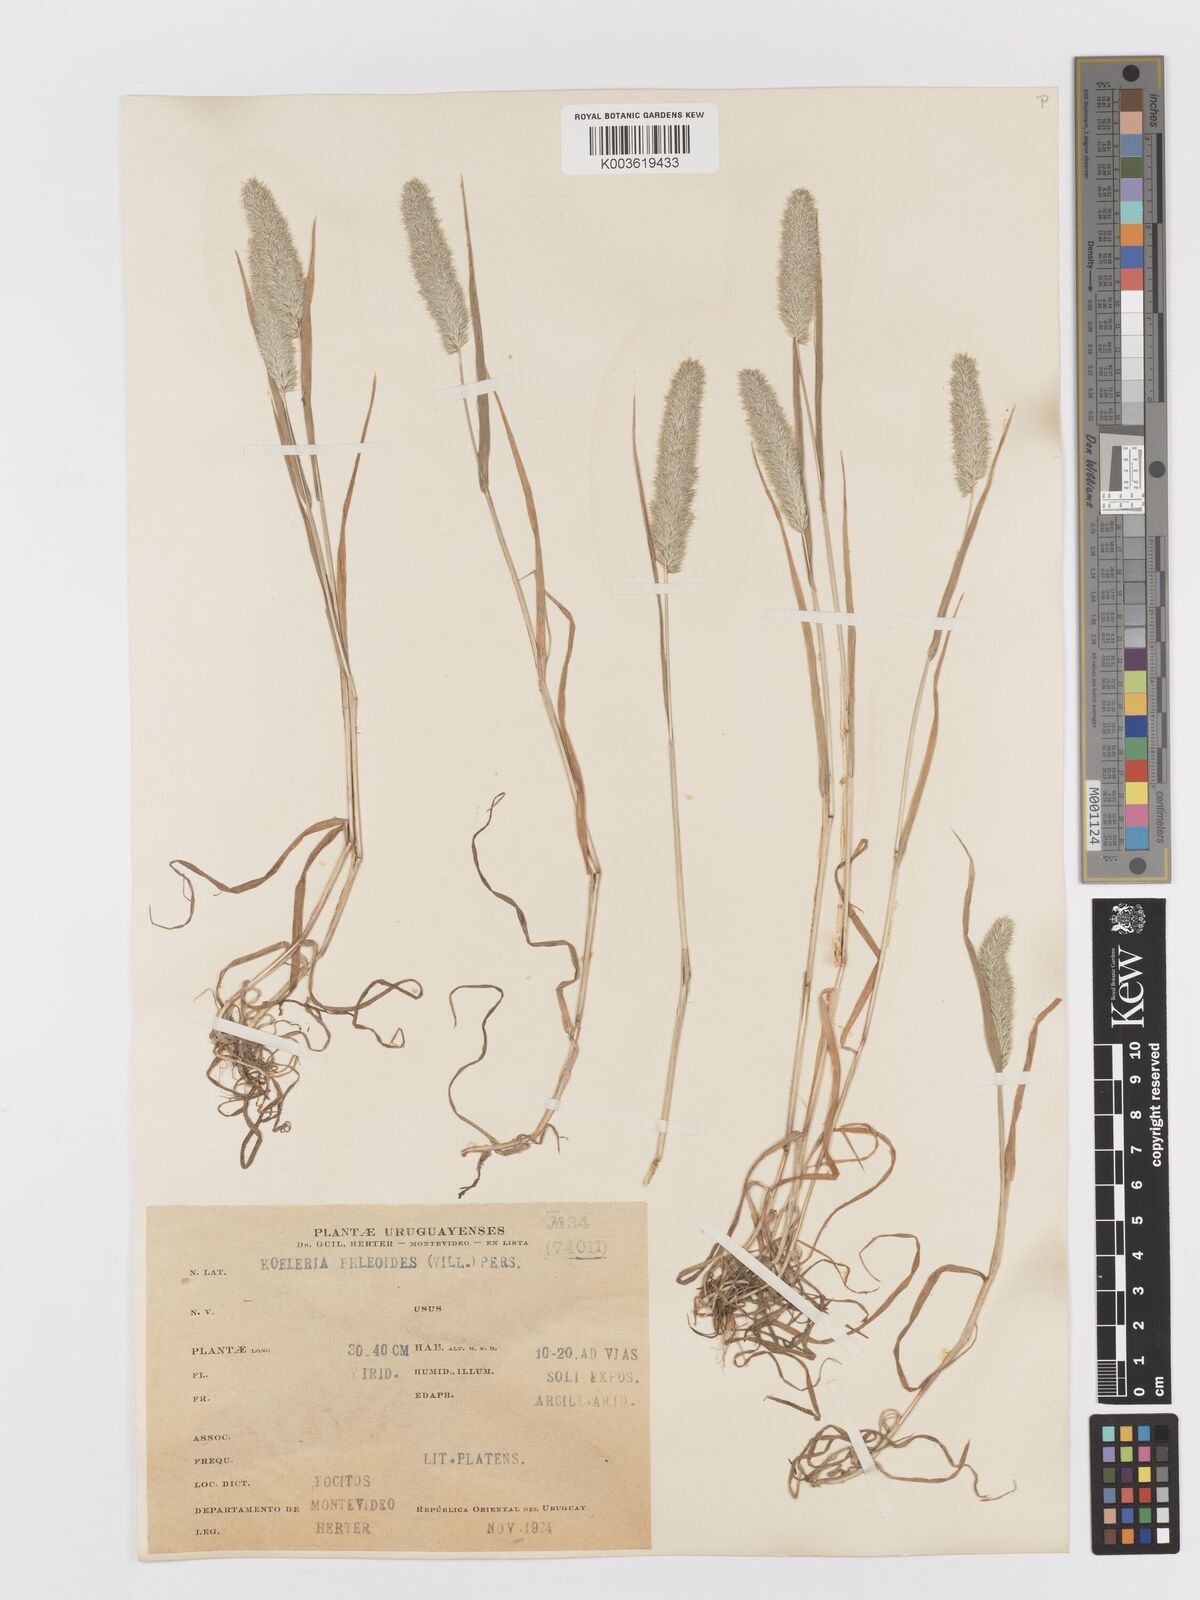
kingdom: Plantae
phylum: Tracheophyta
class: Liliopsida
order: Poales
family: Poaceae
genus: Rostraria
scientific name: Rostraria cristata
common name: Mediterranean hair-grass
